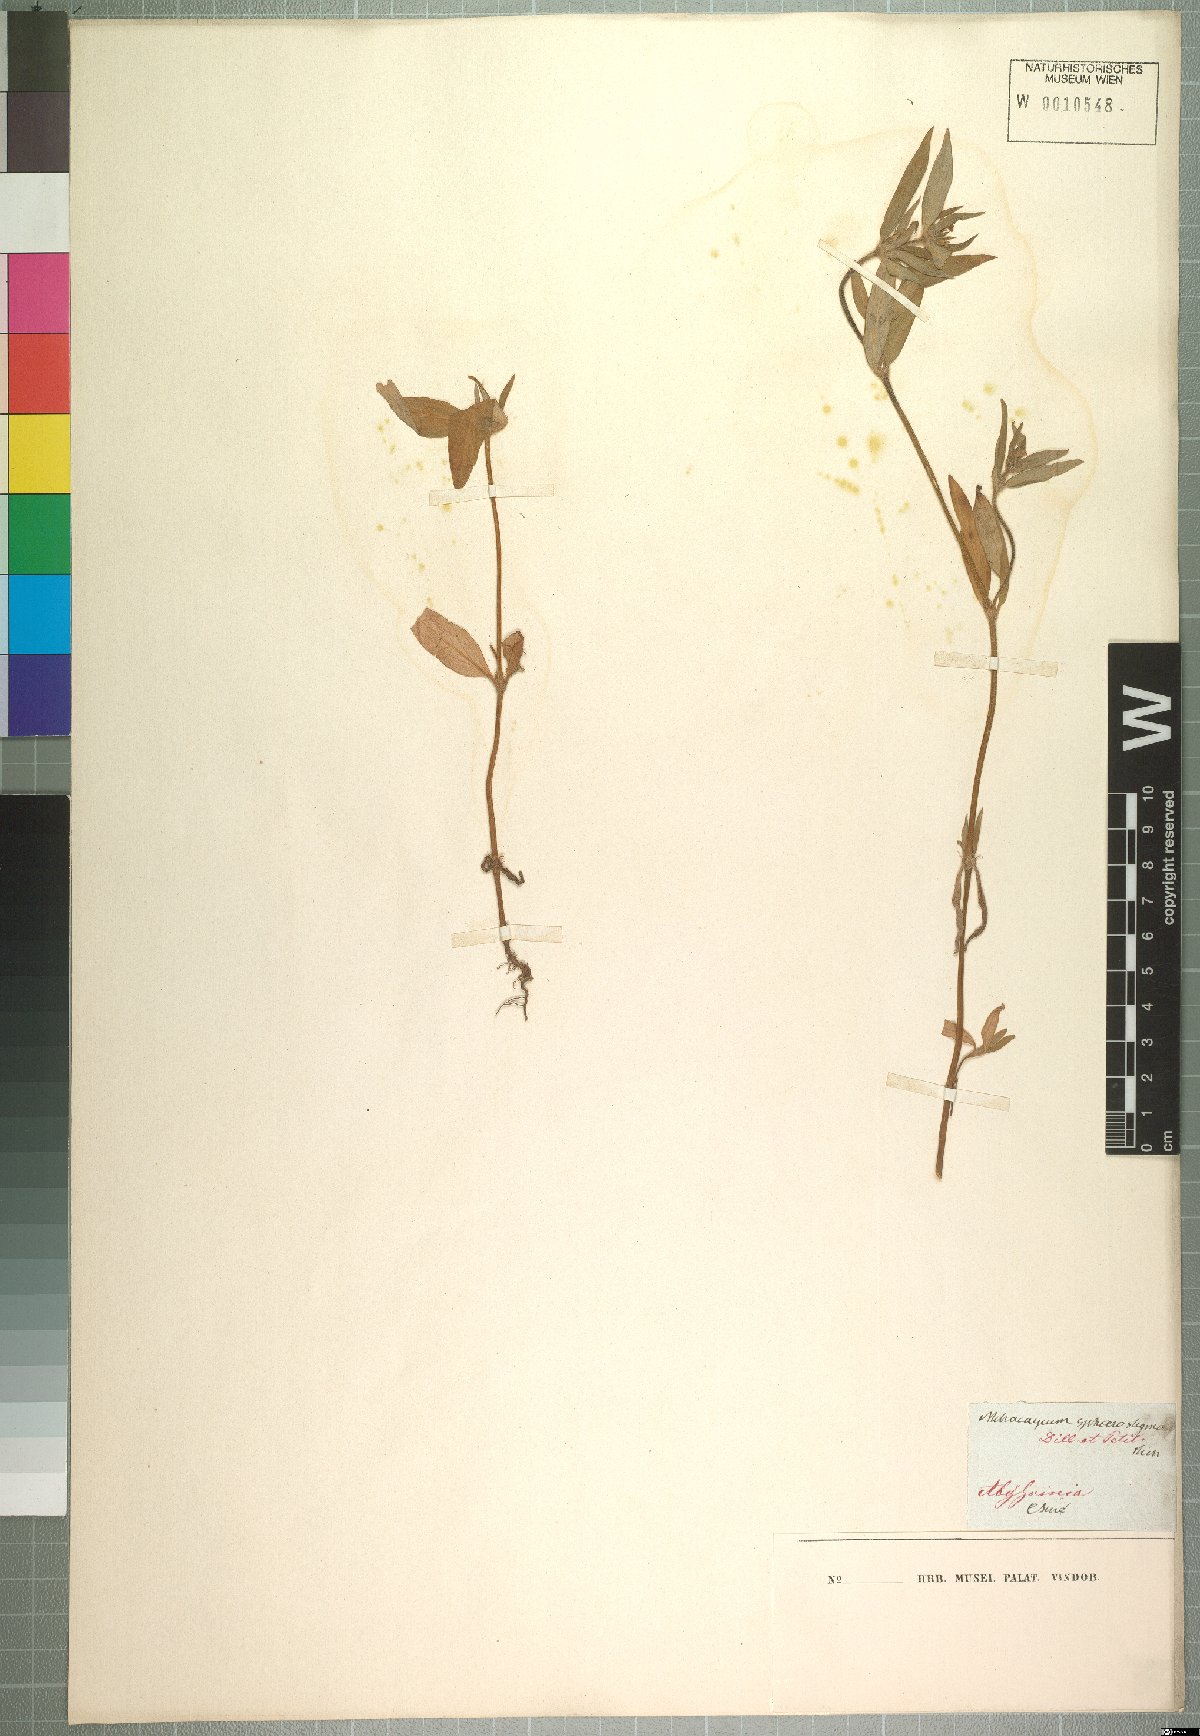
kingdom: Plantae
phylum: Tracheophyta
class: Magnoliopsida
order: Gentianales
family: Rubiaceae
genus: Spermacoce
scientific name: Spermacoce sphaerostigma
